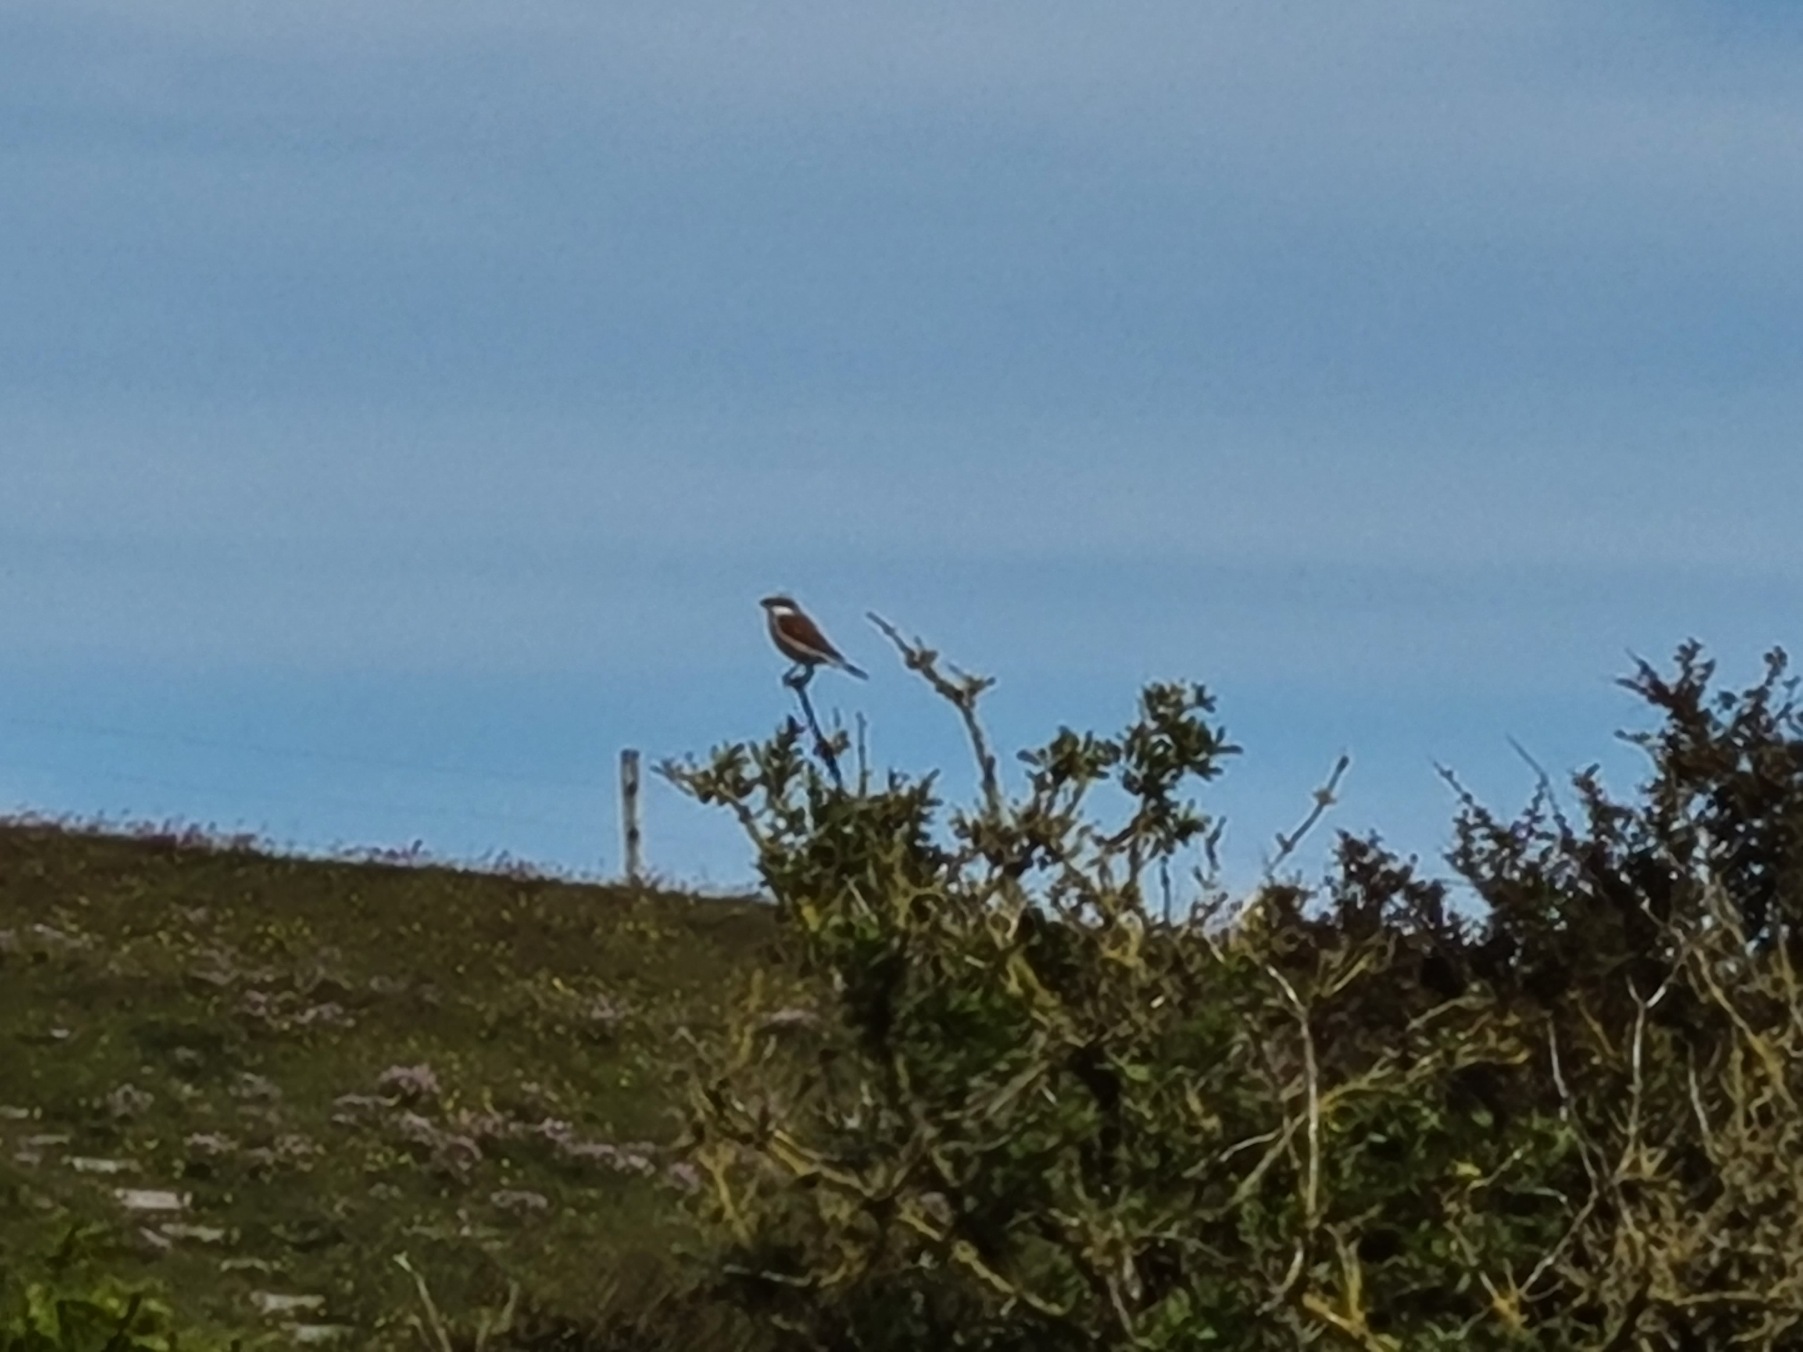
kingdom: Animalia
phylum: Chordata
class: Aves
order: Passeriformes
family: Laniidae
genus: Lanius
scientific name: Lanius collurio
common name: Rødrygget tornskade
